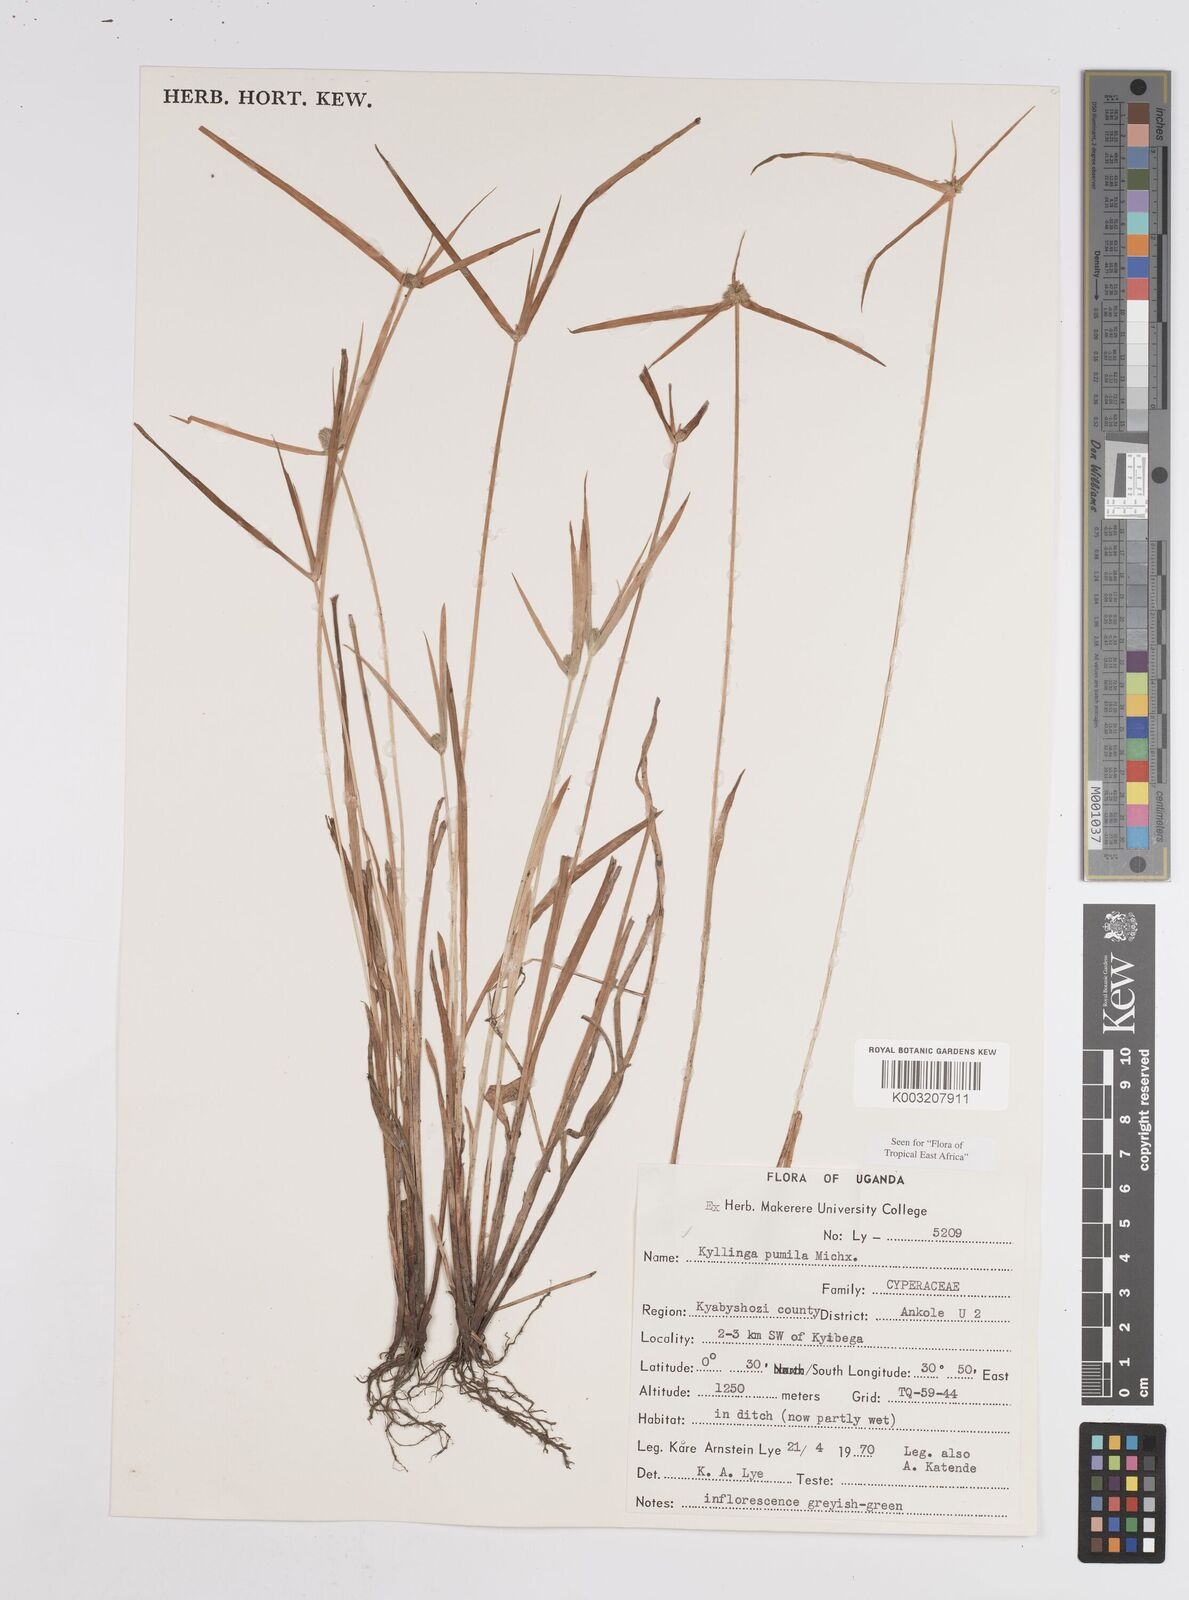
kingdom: Plantae
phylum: Tracheophyta
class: Liliopsida
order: Poales
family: Cyperaceae
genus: Cyperus
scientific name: Cyperus
